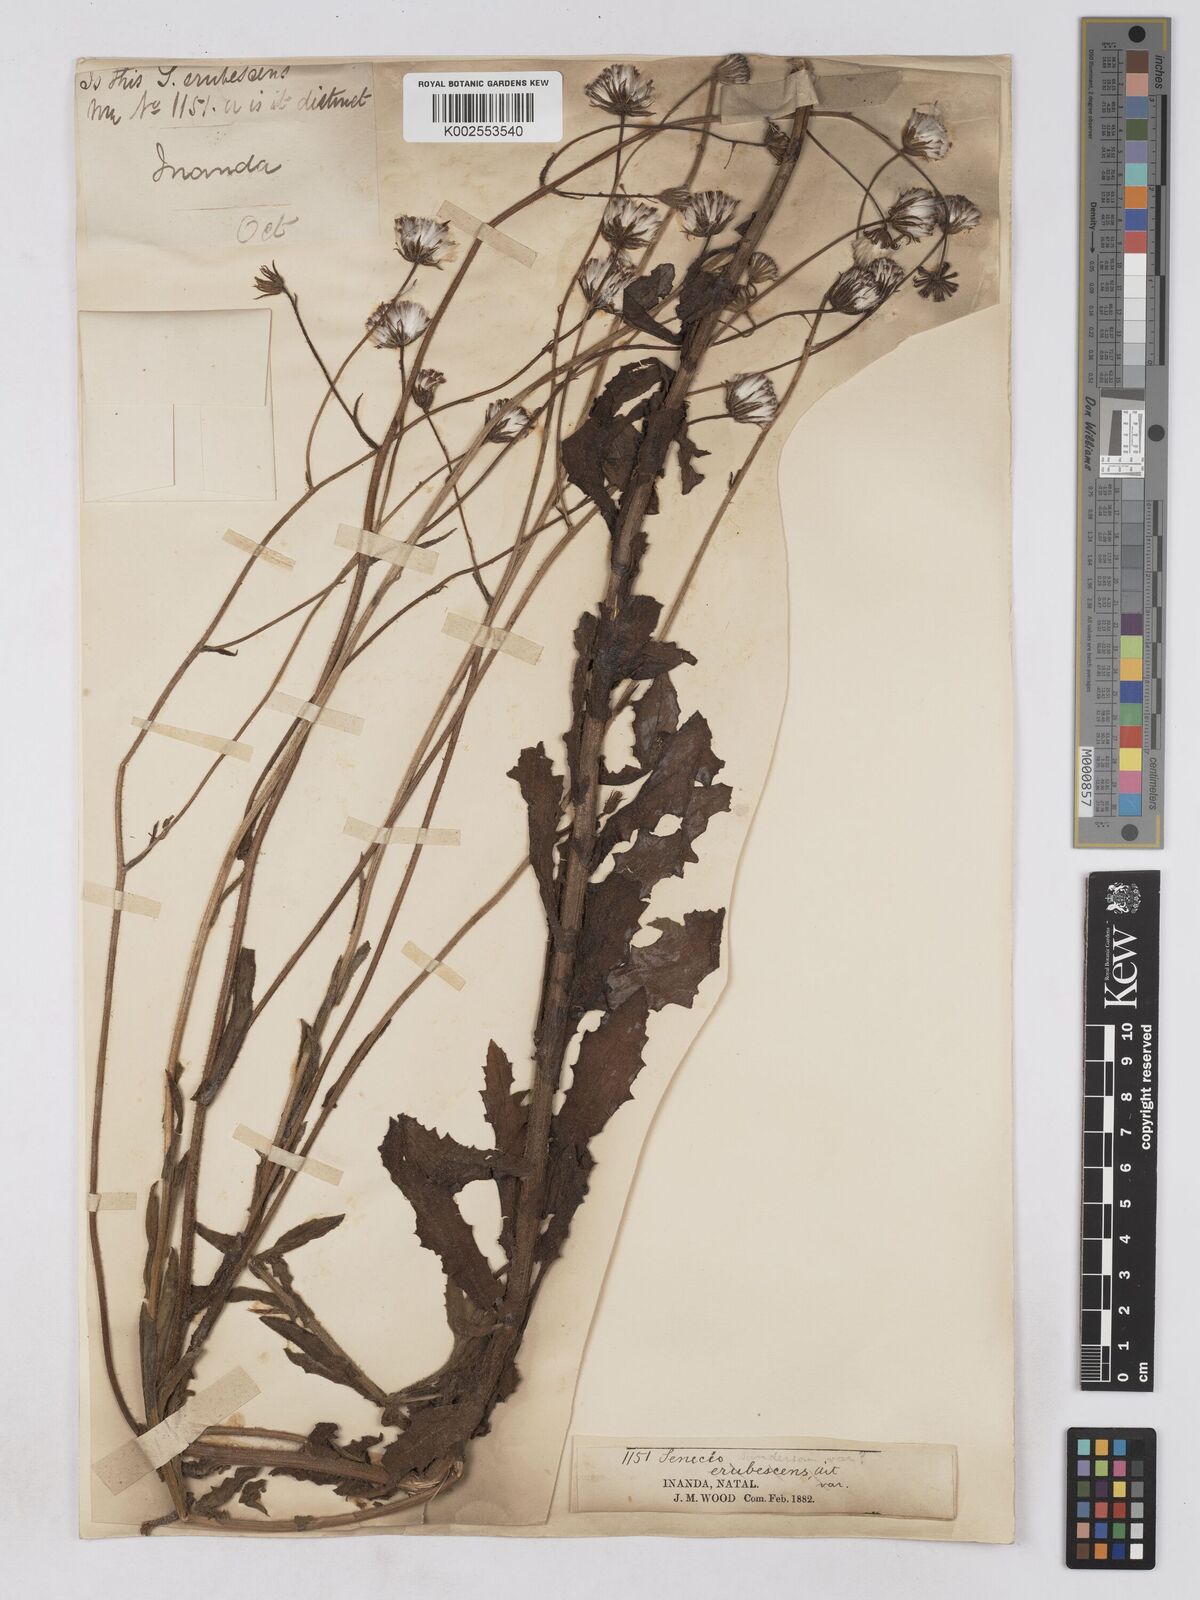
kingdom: Plantae
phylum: Tracheophyta
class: Magnoliopsida
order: Asterales
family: Asteraceae
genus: Senecio
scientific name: Senecio sandersonii
